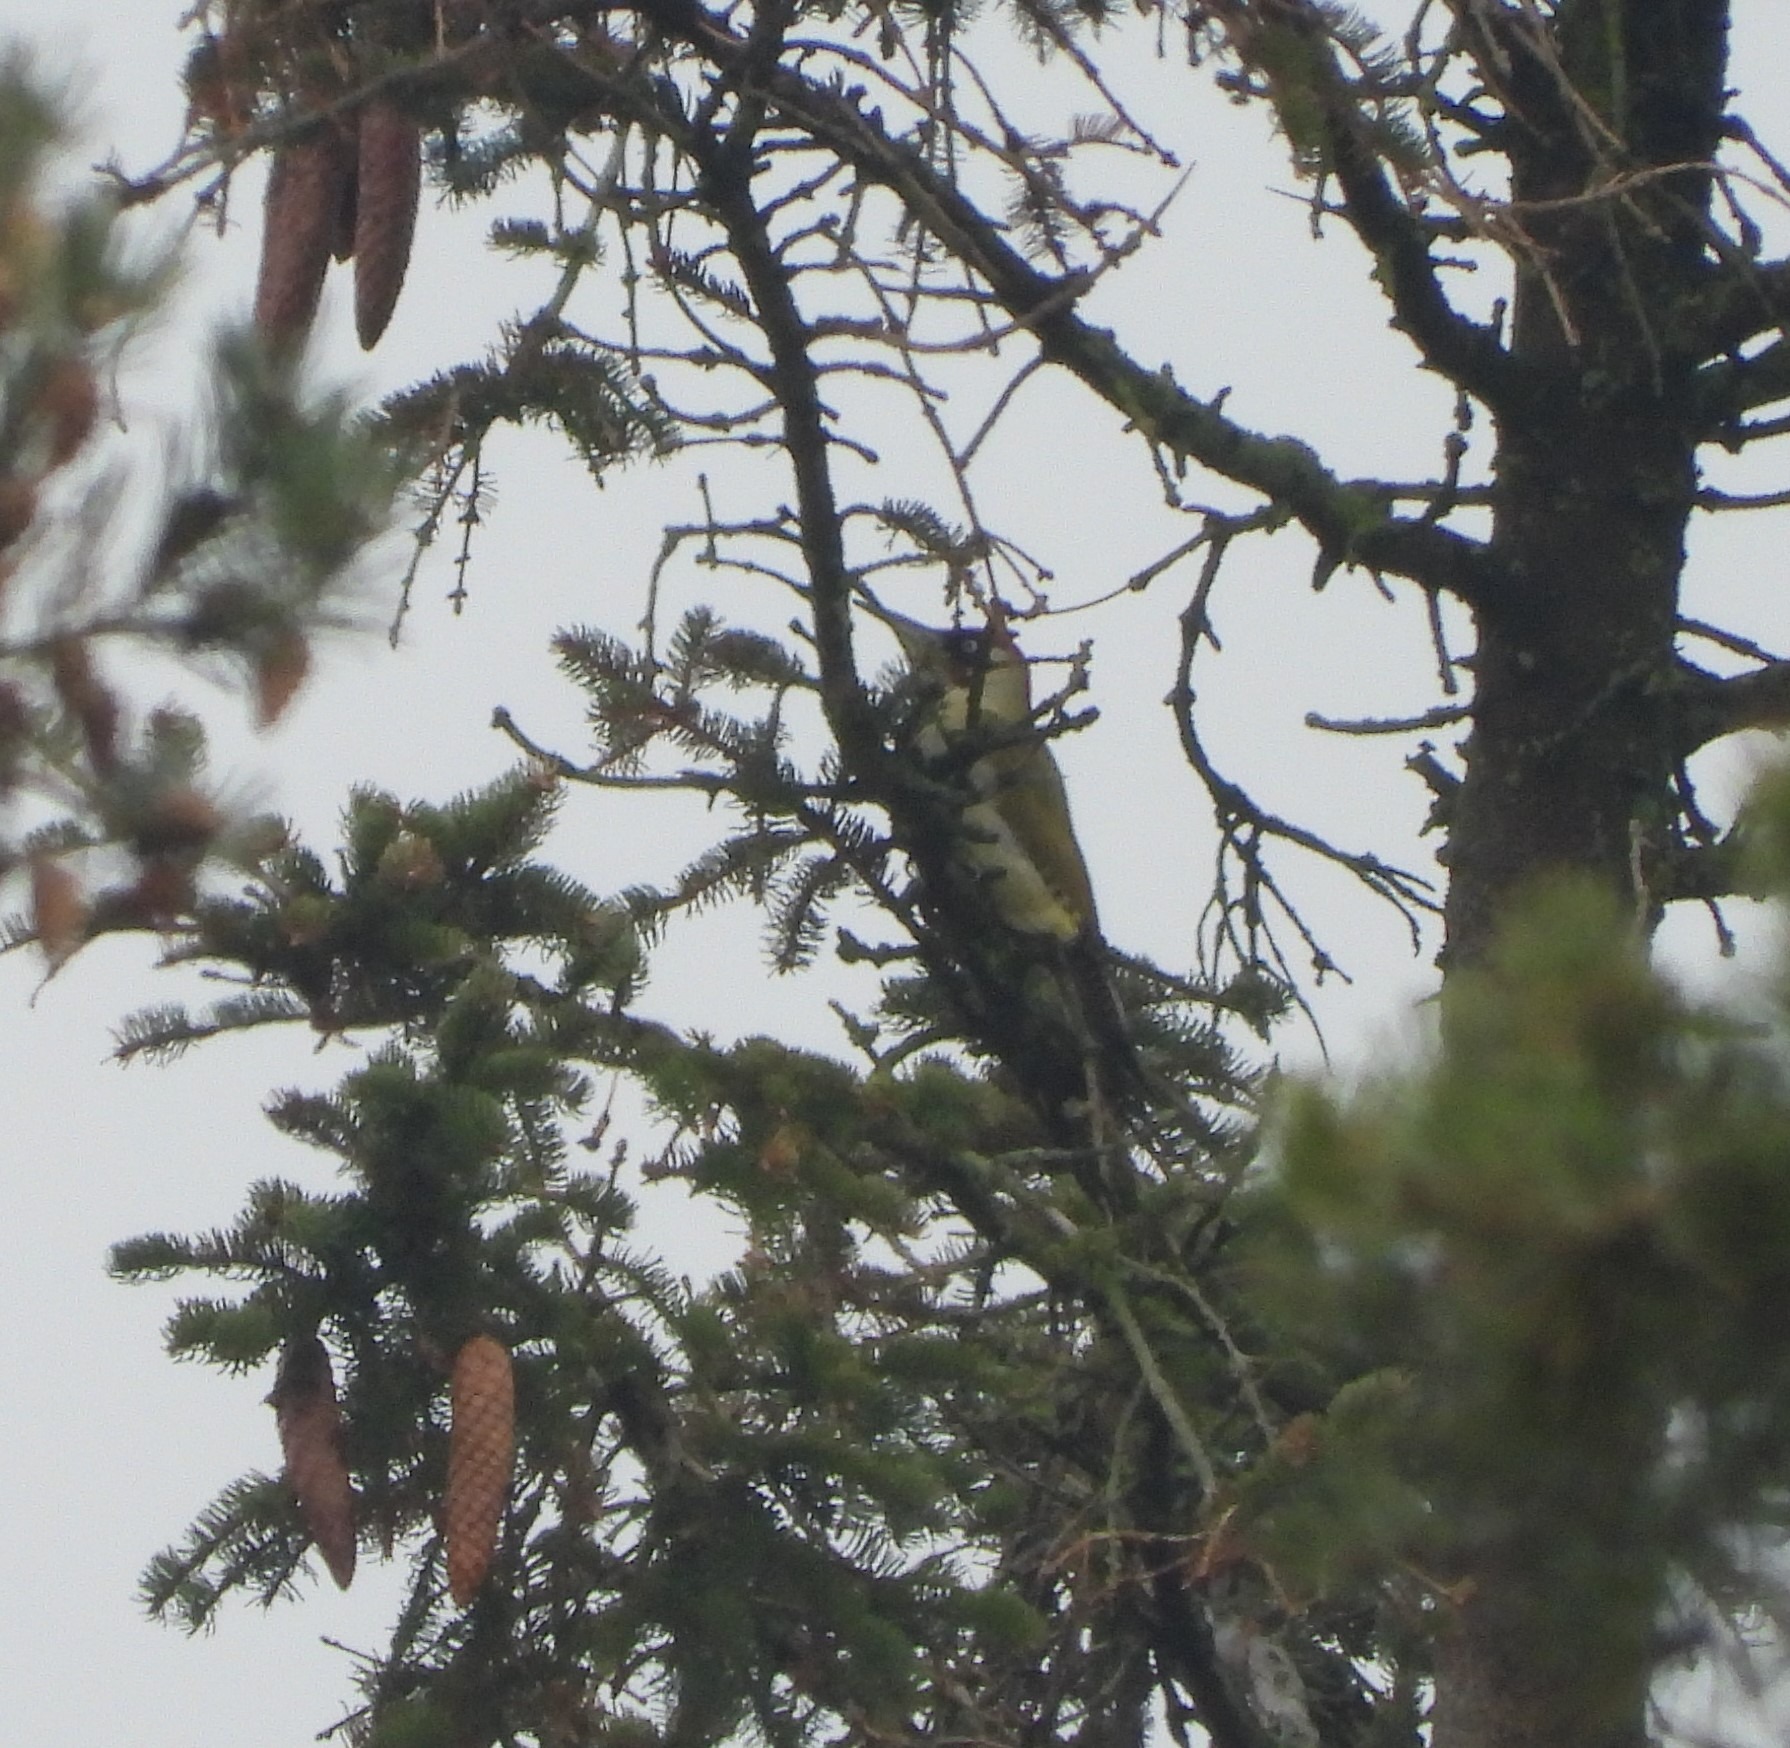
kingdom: Animalia
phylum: Chordata
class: Aves
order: Piciformes
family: Picidae
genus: Picus
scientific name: Picus viridis
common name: Grønspætte
